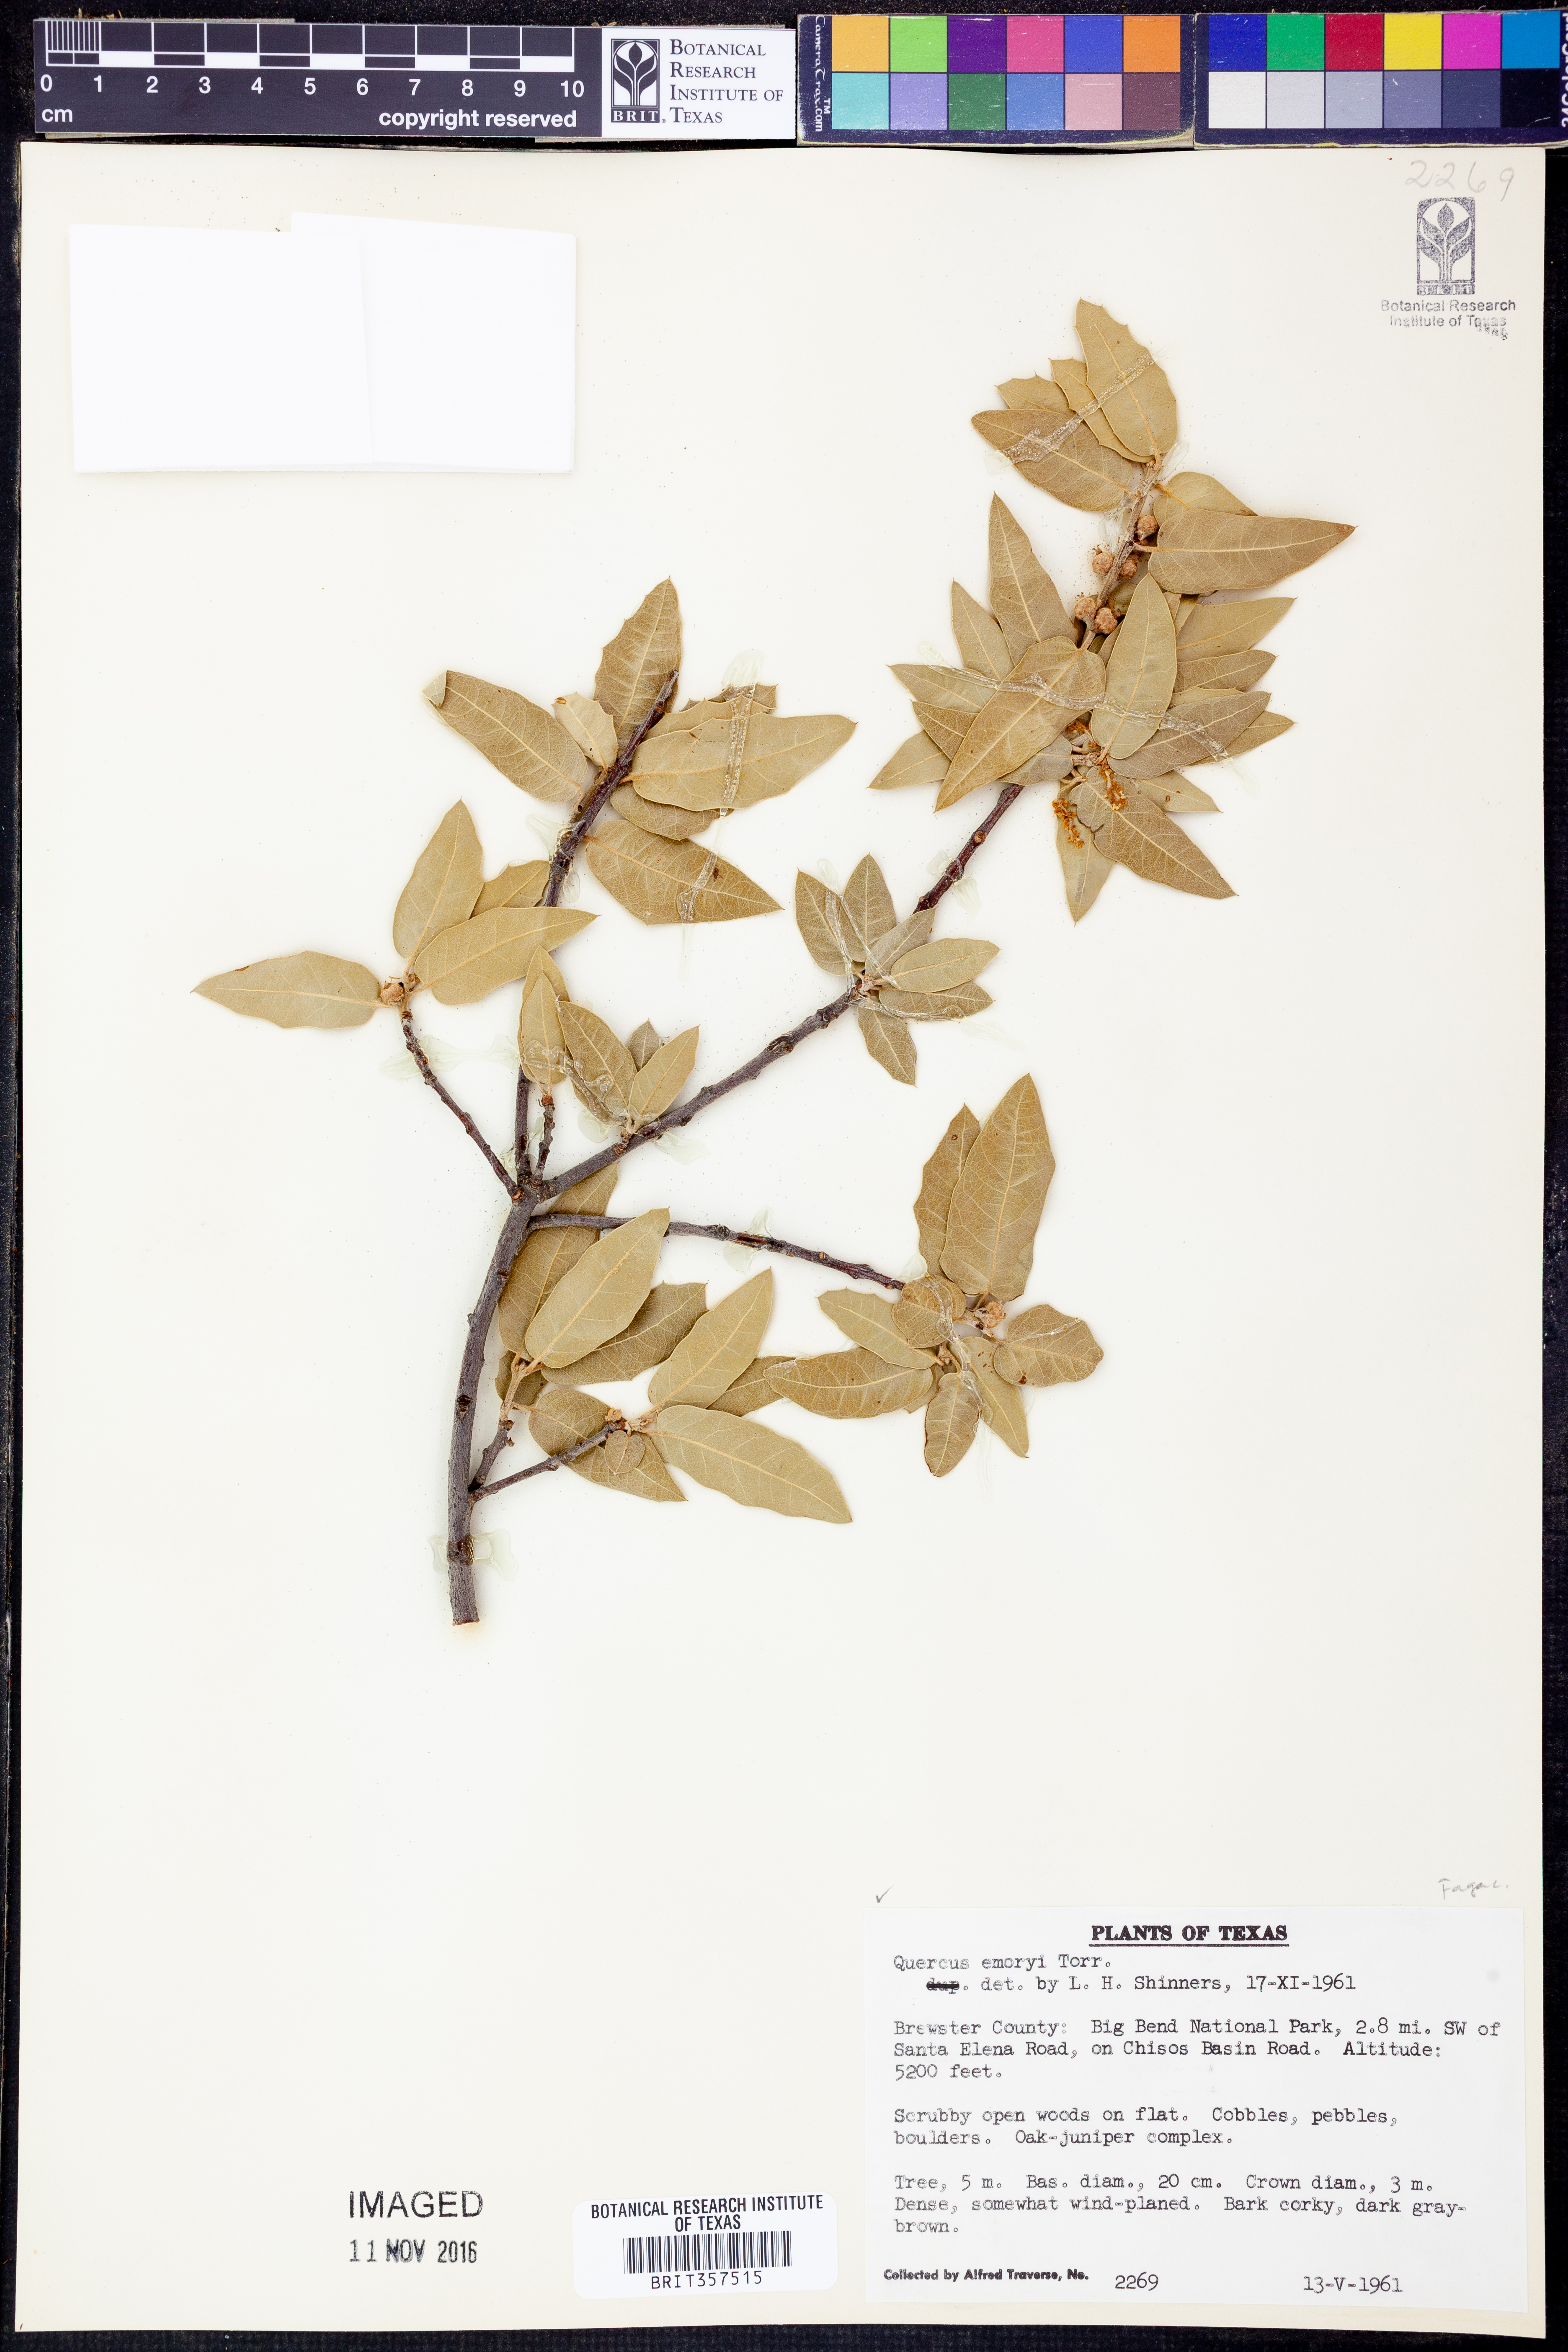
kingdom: Plantae
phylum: Tracheophyta
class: Magnoliopsida
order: Fagales
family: Fagaceae
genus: Quercus
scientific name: Quercus emoryi
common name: Emory oak
